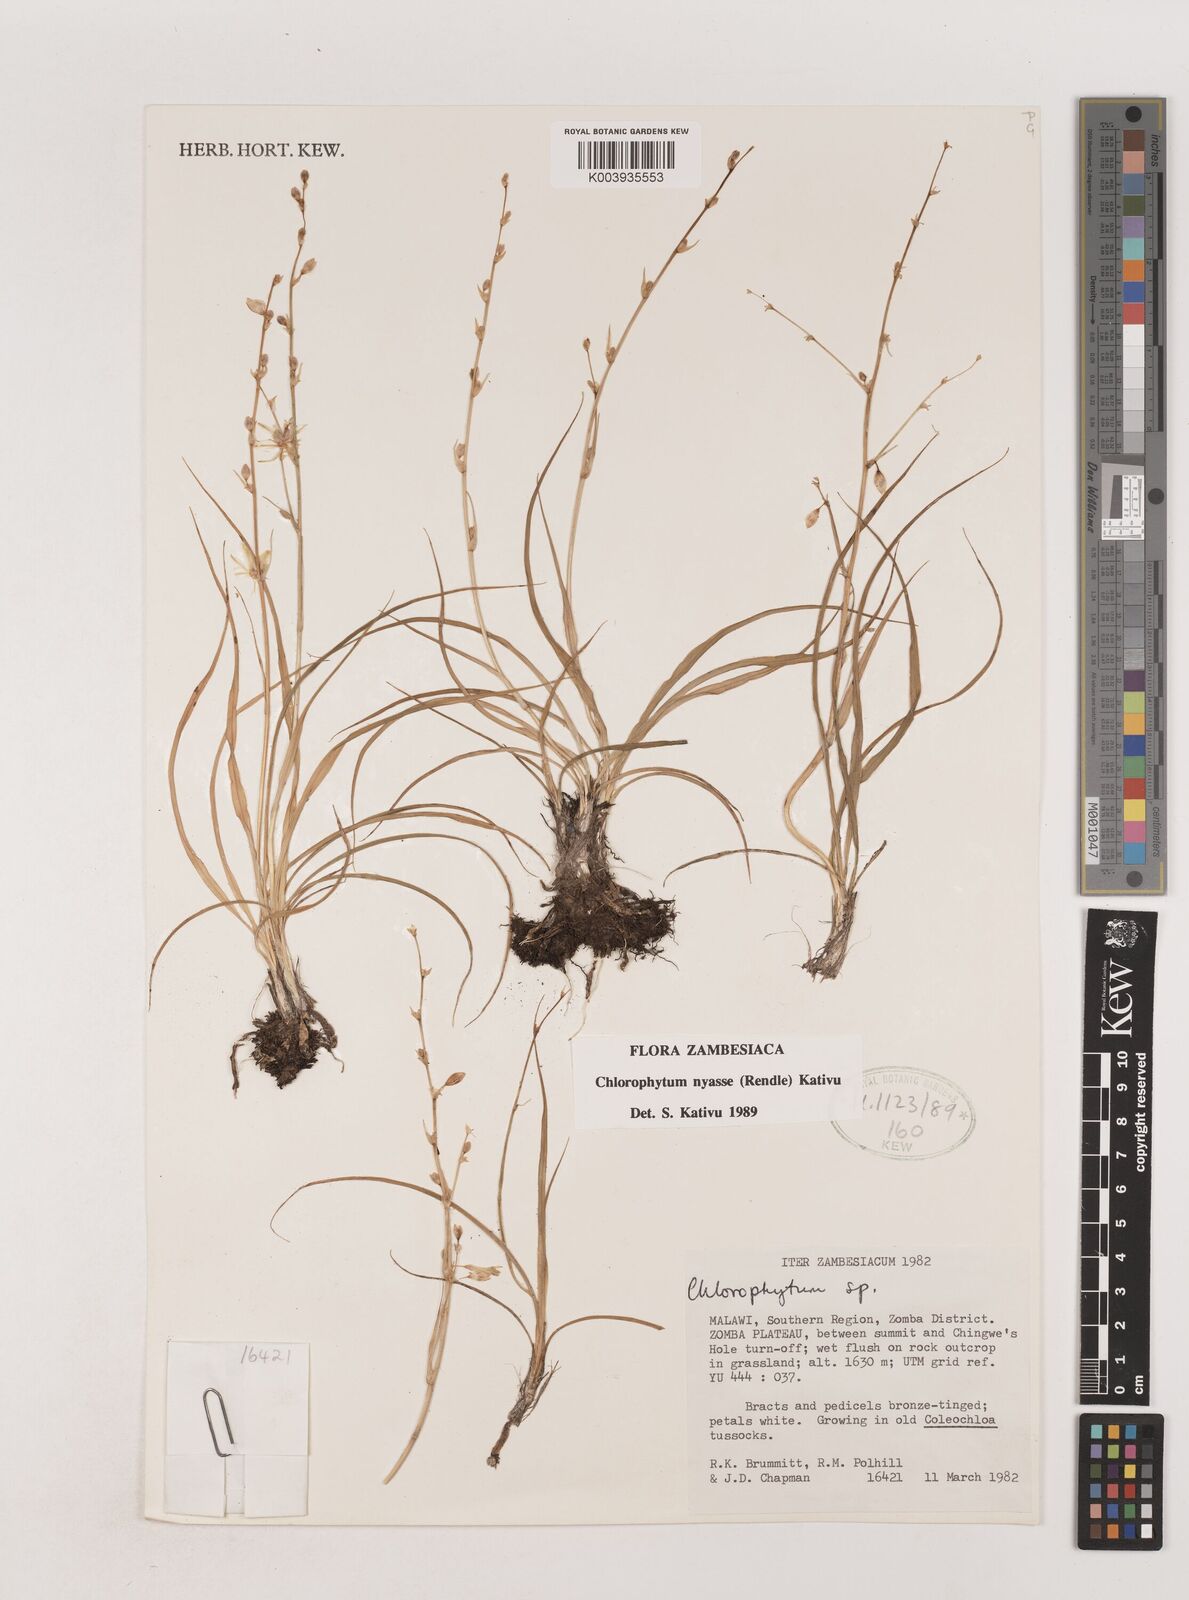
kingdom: Plantae
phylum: Tracheophyta
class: Liliopsida
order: Asparagales
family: Asparagaceae
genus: Chlorophytum
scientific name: Chlorophytum nyasae
